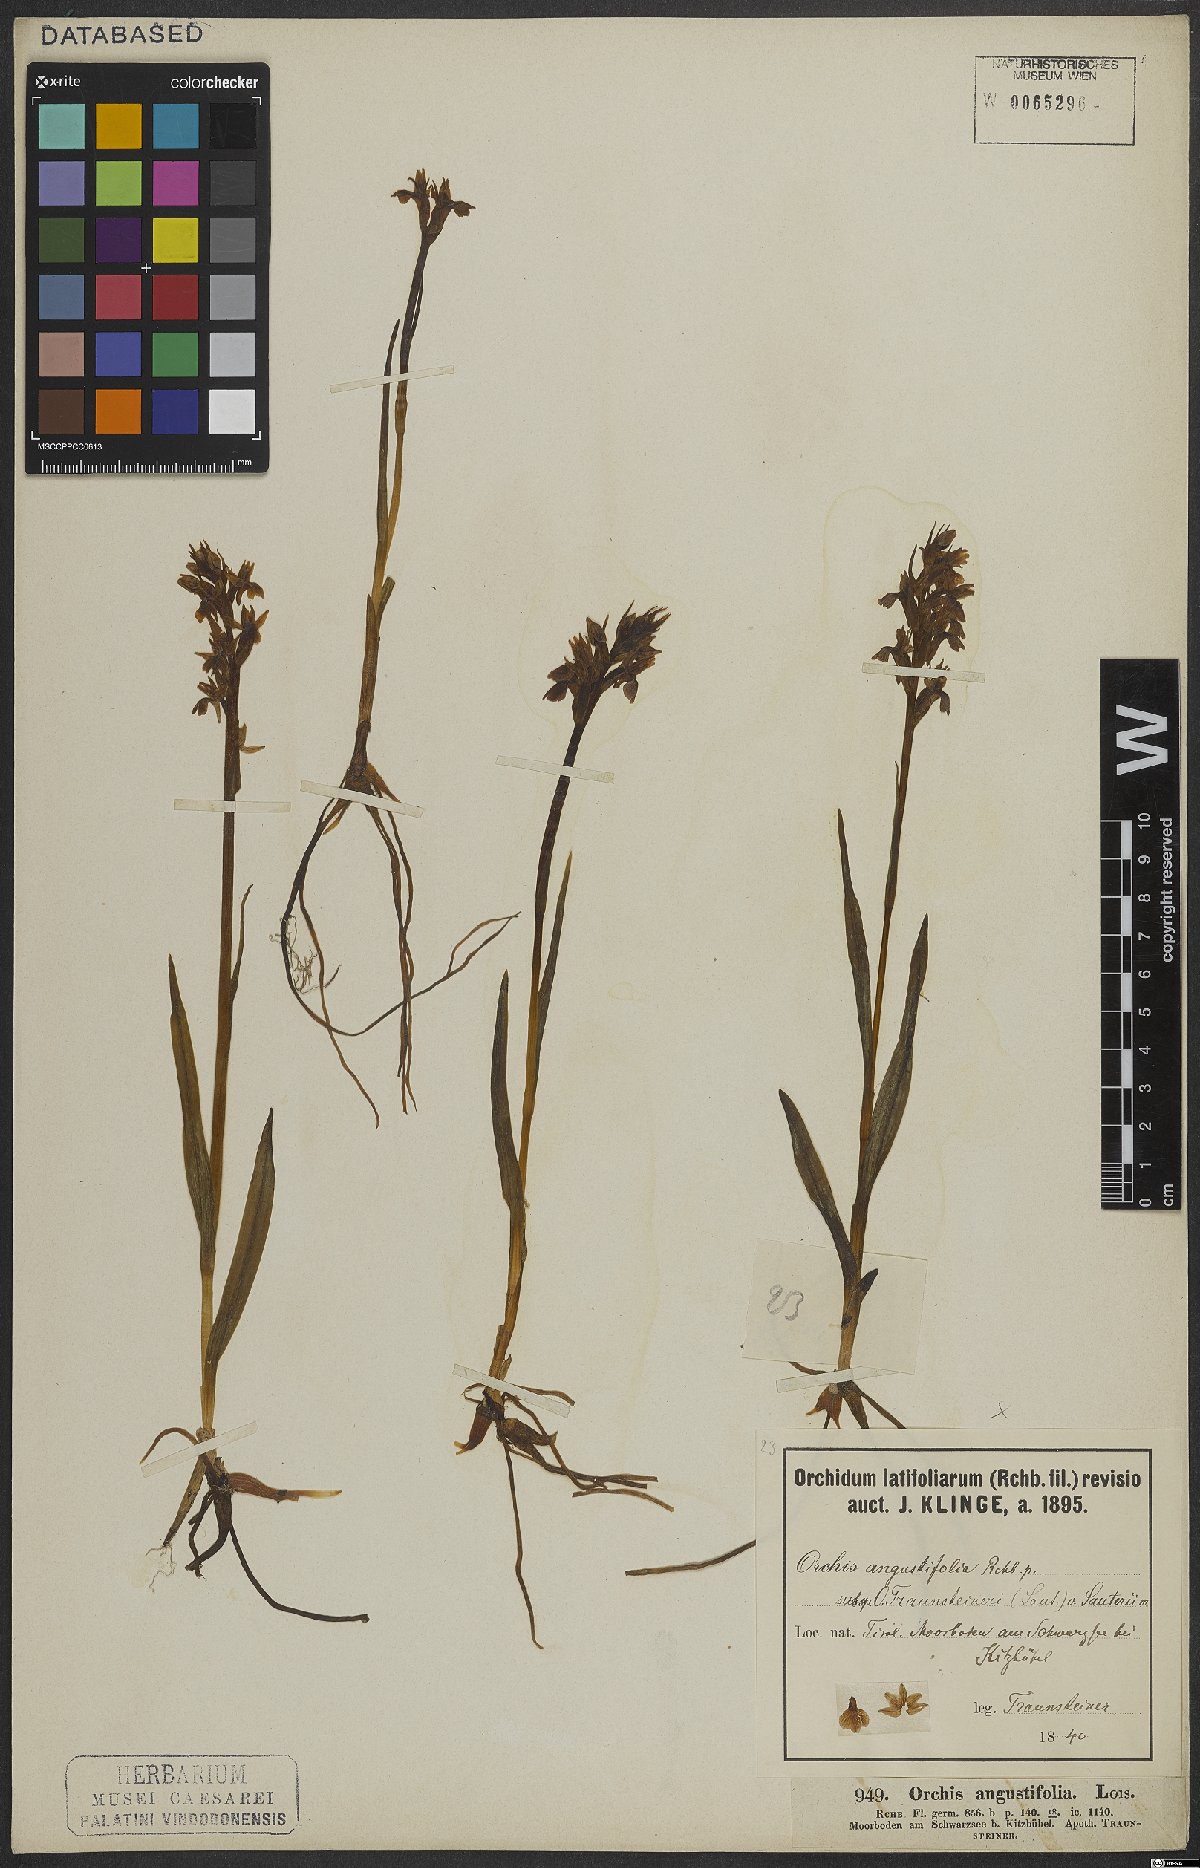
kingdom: Plantae
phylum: Tracheophyta
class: Liliopsida
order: Asparagales
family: Orchidaceae
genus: Dactylorhiza
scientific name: Dactylorhiza incarnata
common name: Early marsh-orchid
